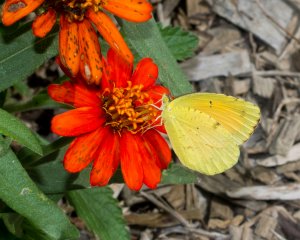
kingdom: Animalia
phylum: Arthropoda
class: Insecta
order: Lepidoptera
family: Pieridae
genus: Abaeis
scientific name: Abaeis nicippe
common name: Sleepy Orange
